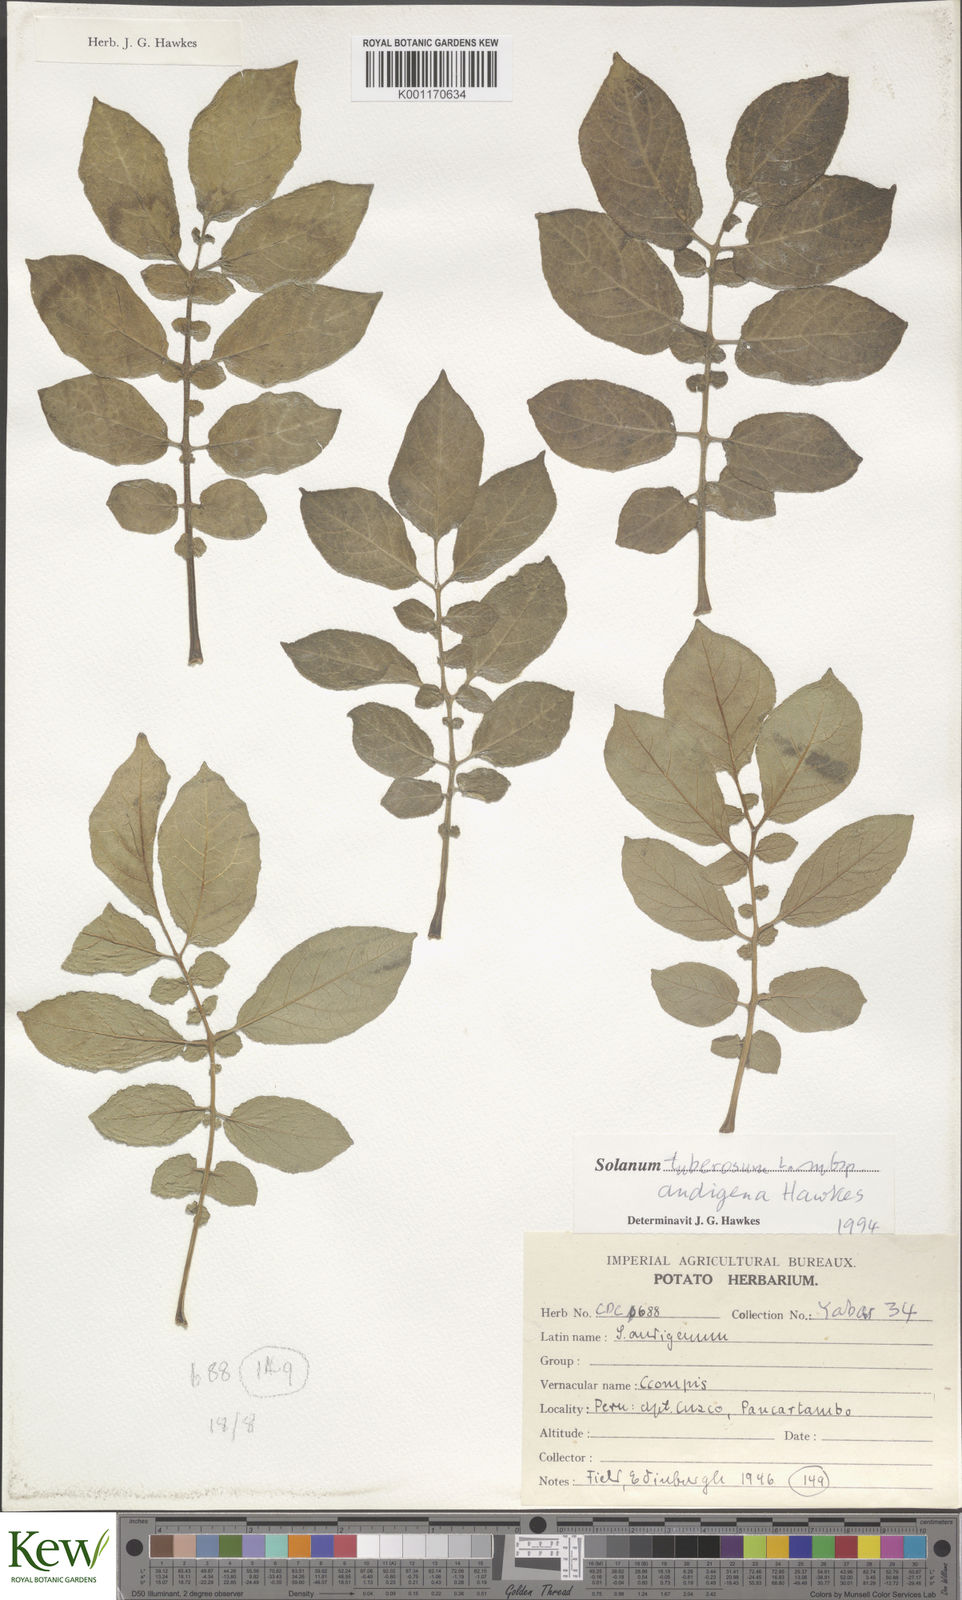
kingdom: Plantae
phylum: Tracheophyta
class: Magnoliopsida
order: Solanales
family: Solanaceae
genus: Solanum
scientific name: Solanum tuberosum
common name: Potato
